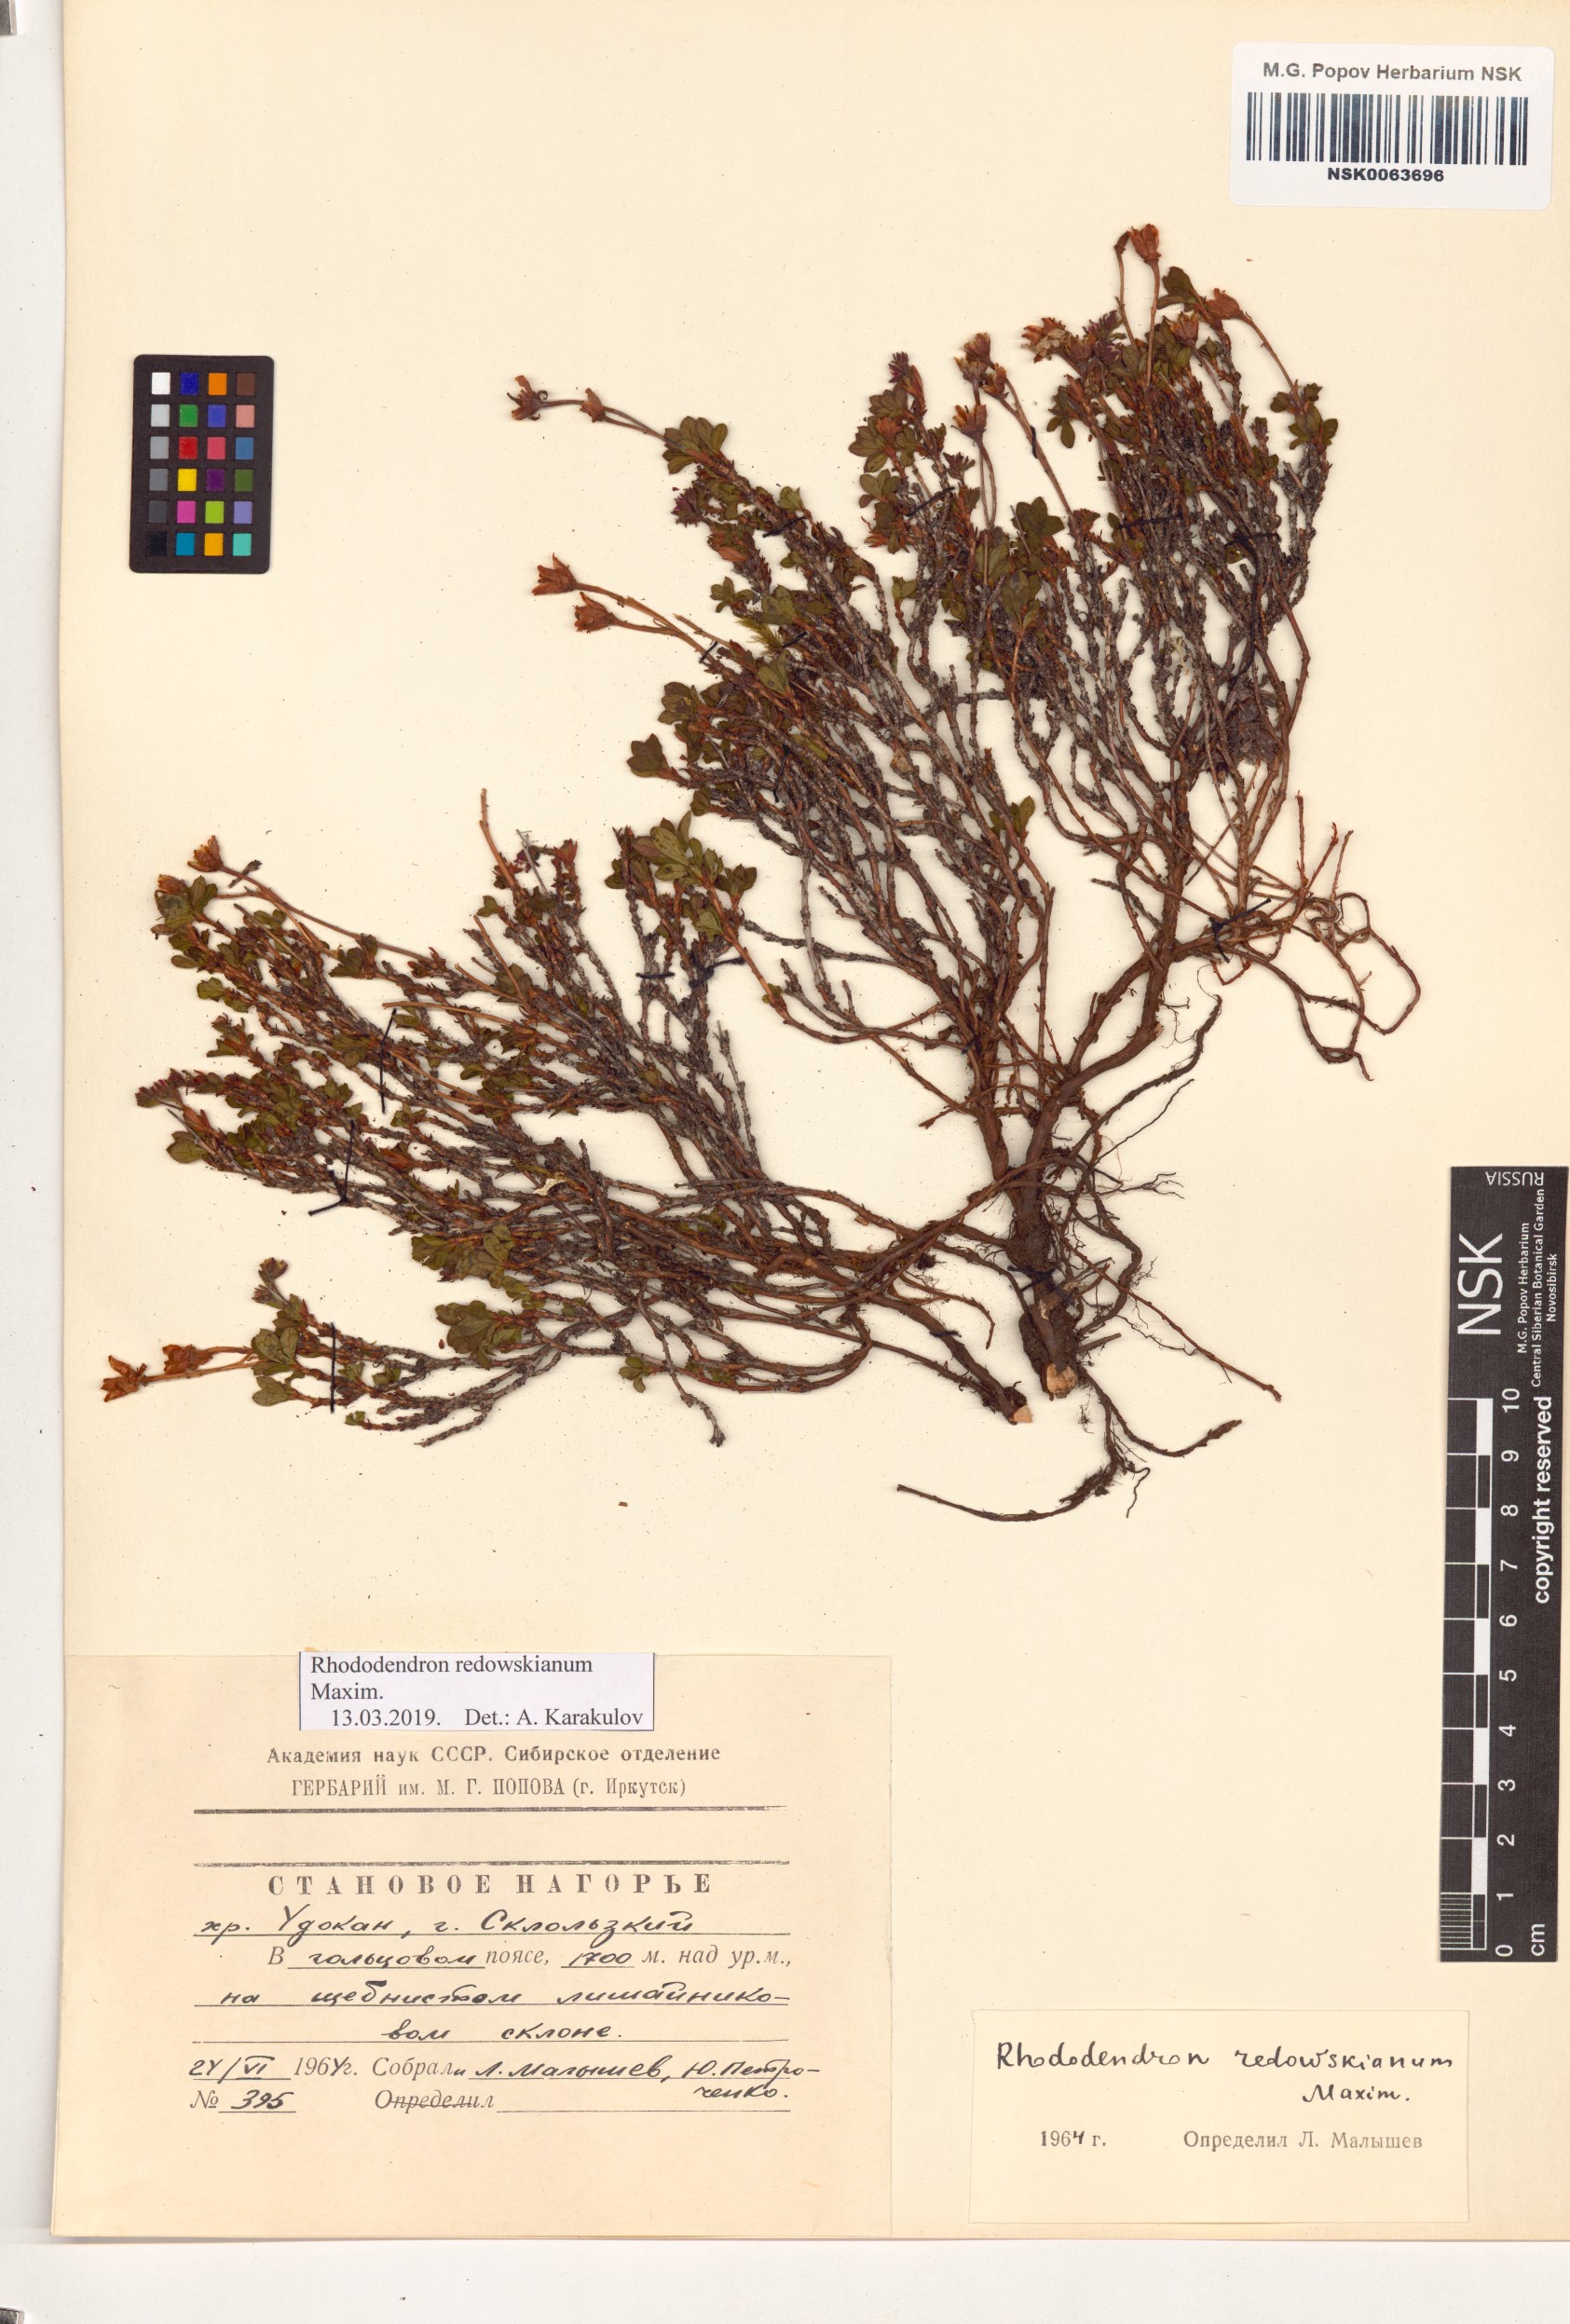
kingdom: Plantae
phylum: Tracheophyta
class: Magnoliopsida
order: Ericales
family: Ericaceae
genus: Rhododendron
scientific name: Rhododendron redowskianum
